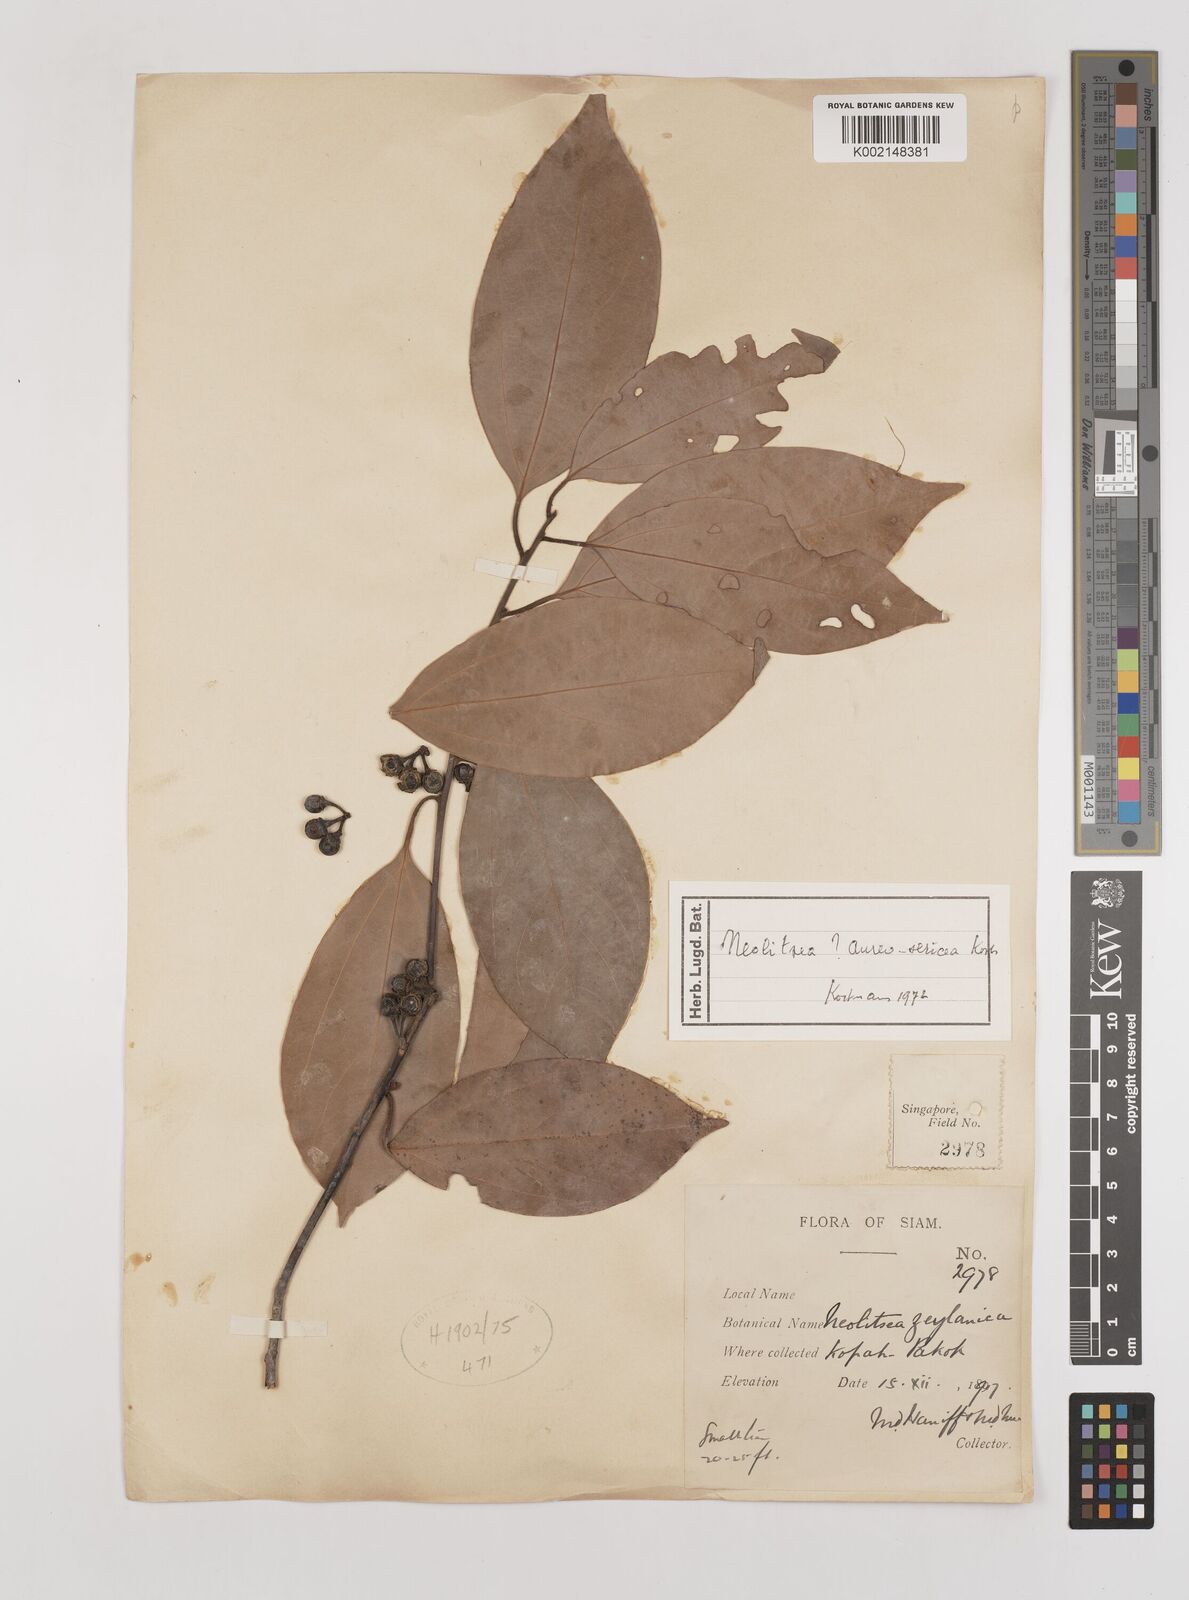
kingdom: Plantae
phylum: Tracheophyta
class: Magnoliopsida
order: Laurales
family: Lauraceae
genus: Neolitsea
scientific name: Neolitsea aureosericea
